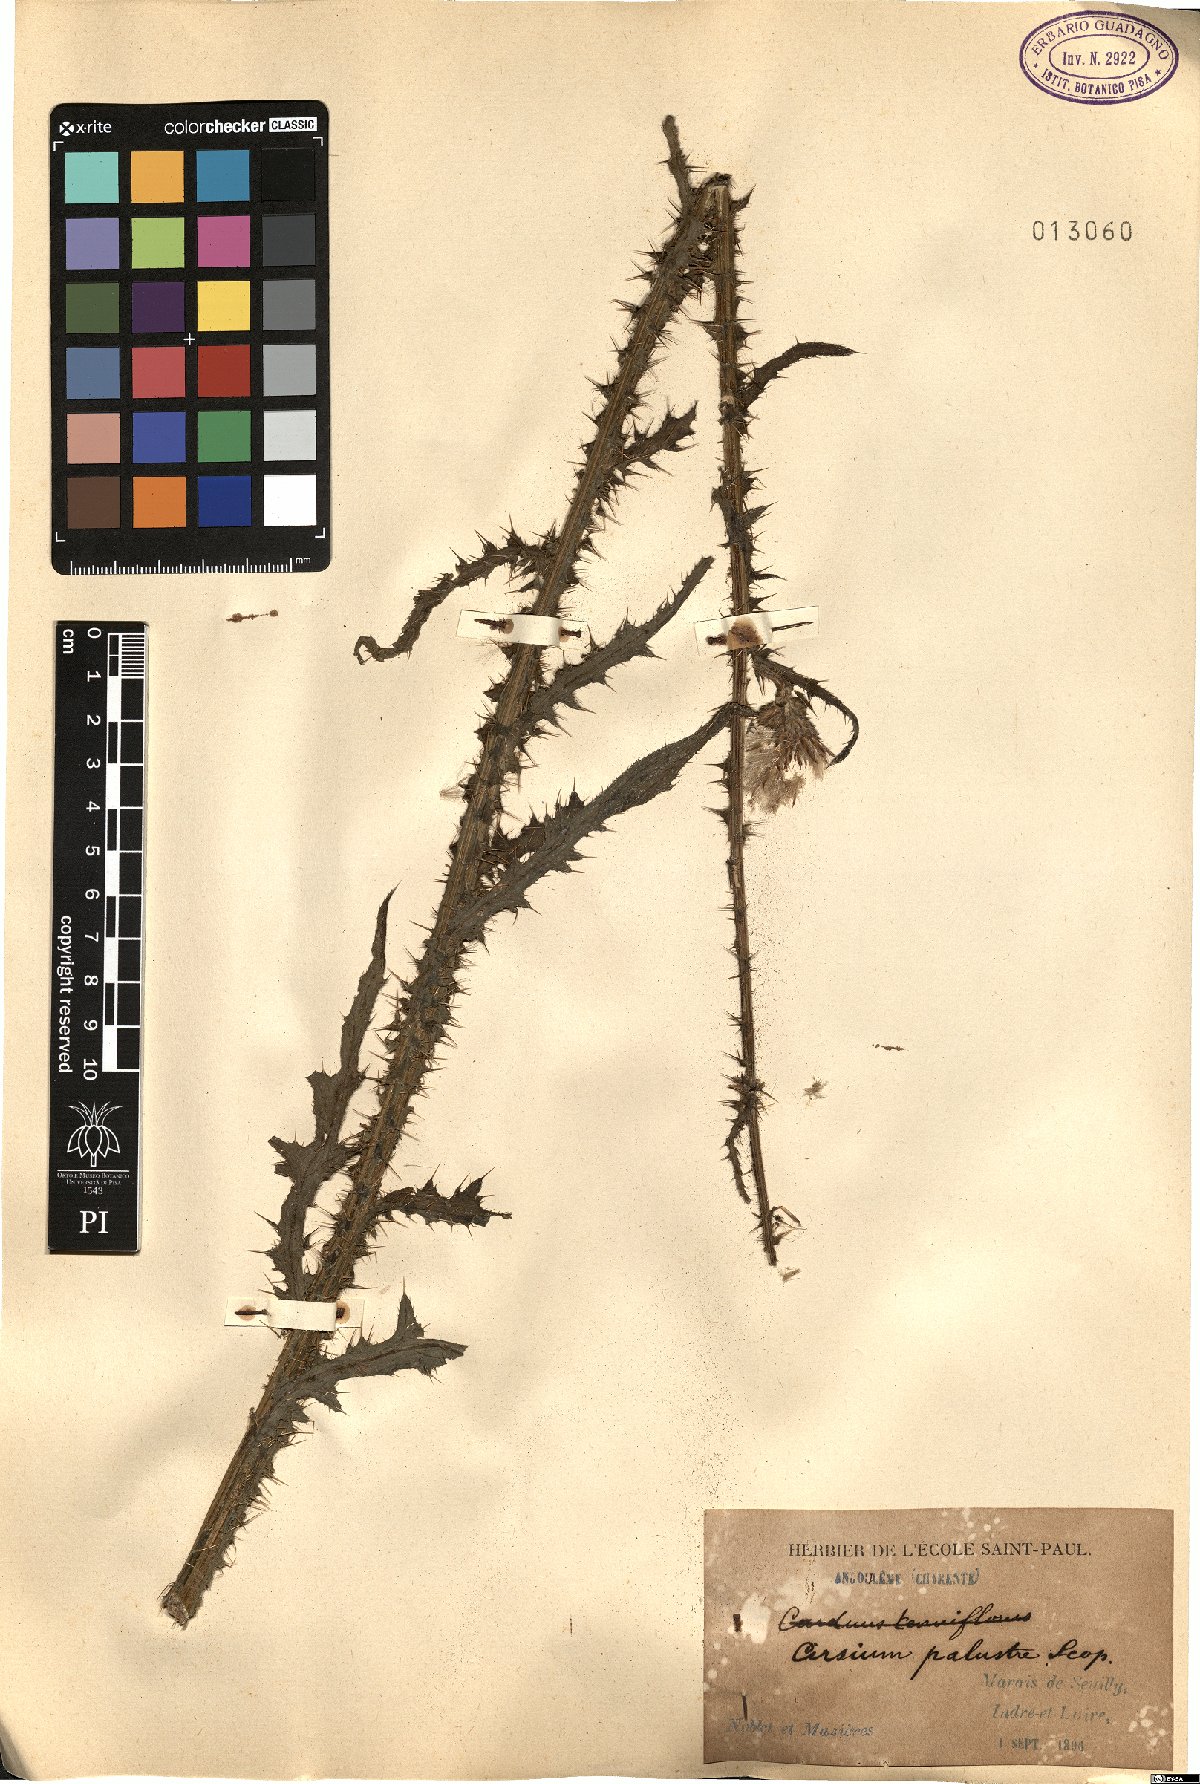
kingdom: Plantae
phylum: Tracheophyta
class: Magnoliopsida
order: Asterales
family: Asteraceae
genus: Cirsium
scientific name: Cirsium palustre
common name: Marsh thistle
